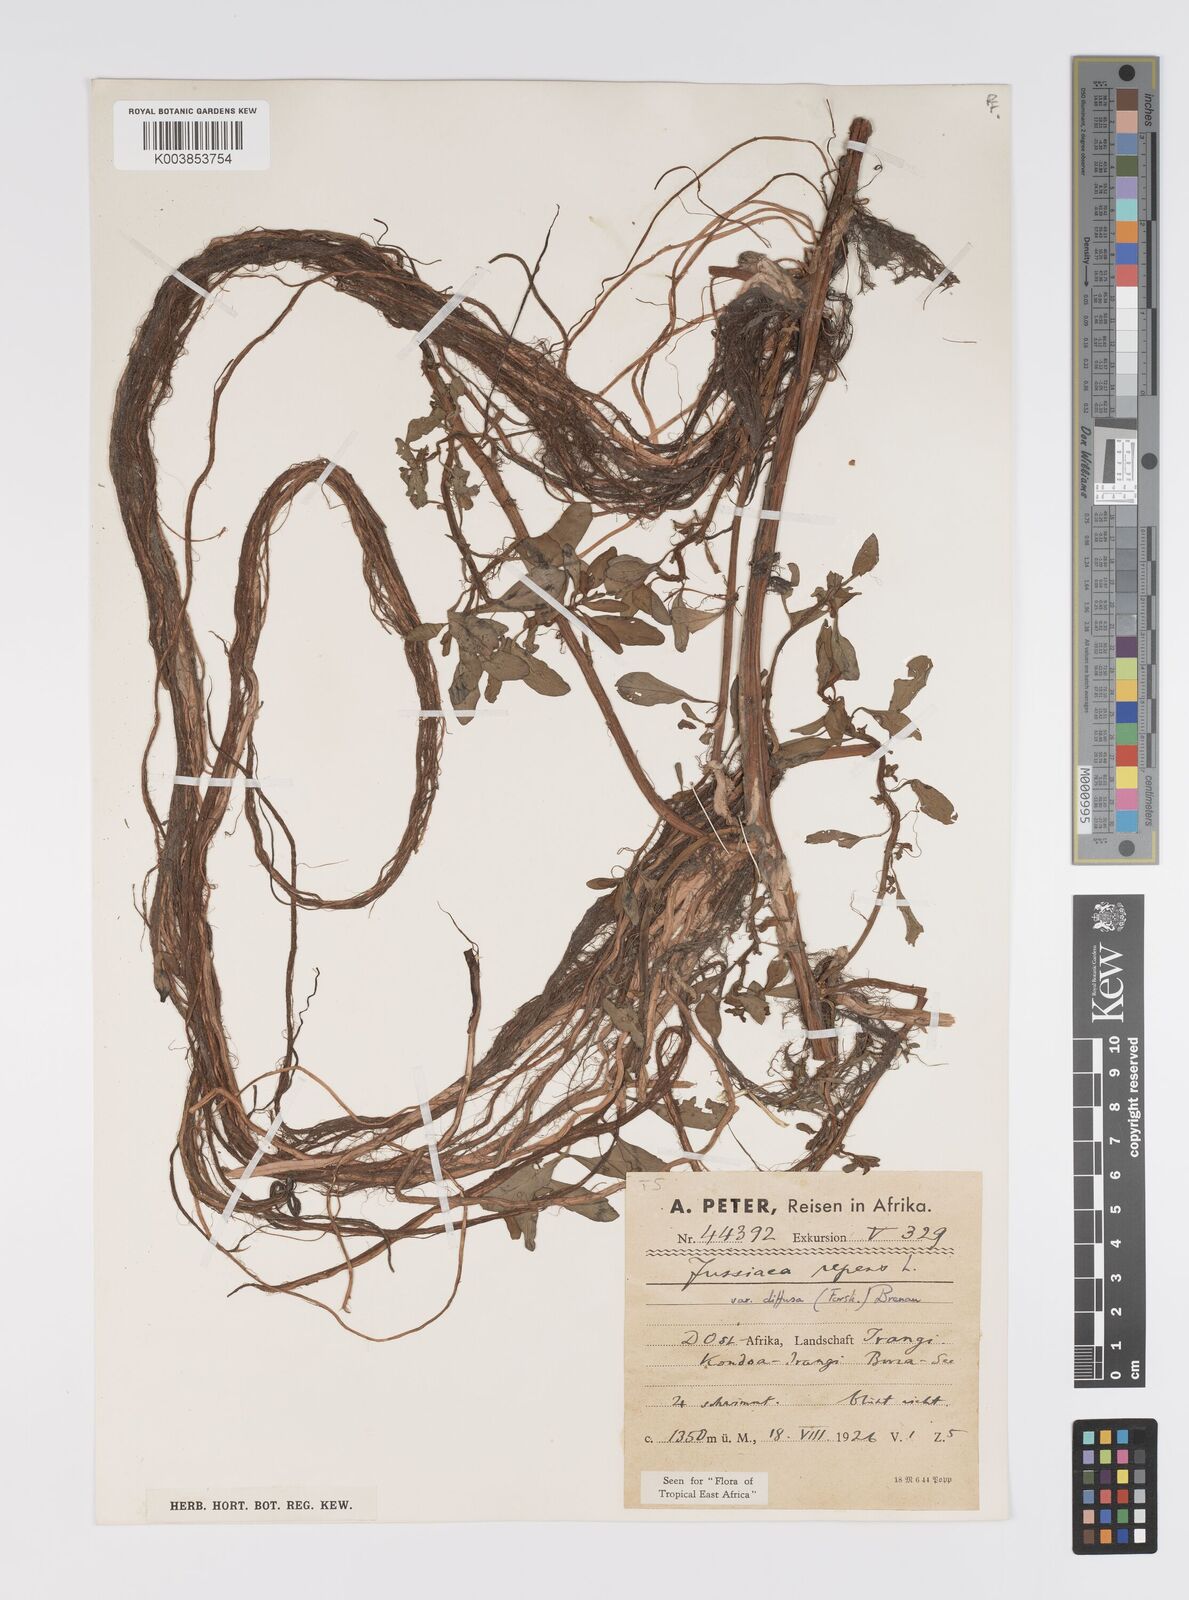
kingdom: Plantae
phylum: Tracheophyta
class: Magnoliopsida
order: Myrtales
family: Onagraceae
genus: Ludwigia
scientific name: Ludwigia adscendens
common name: Creeping water primrose
